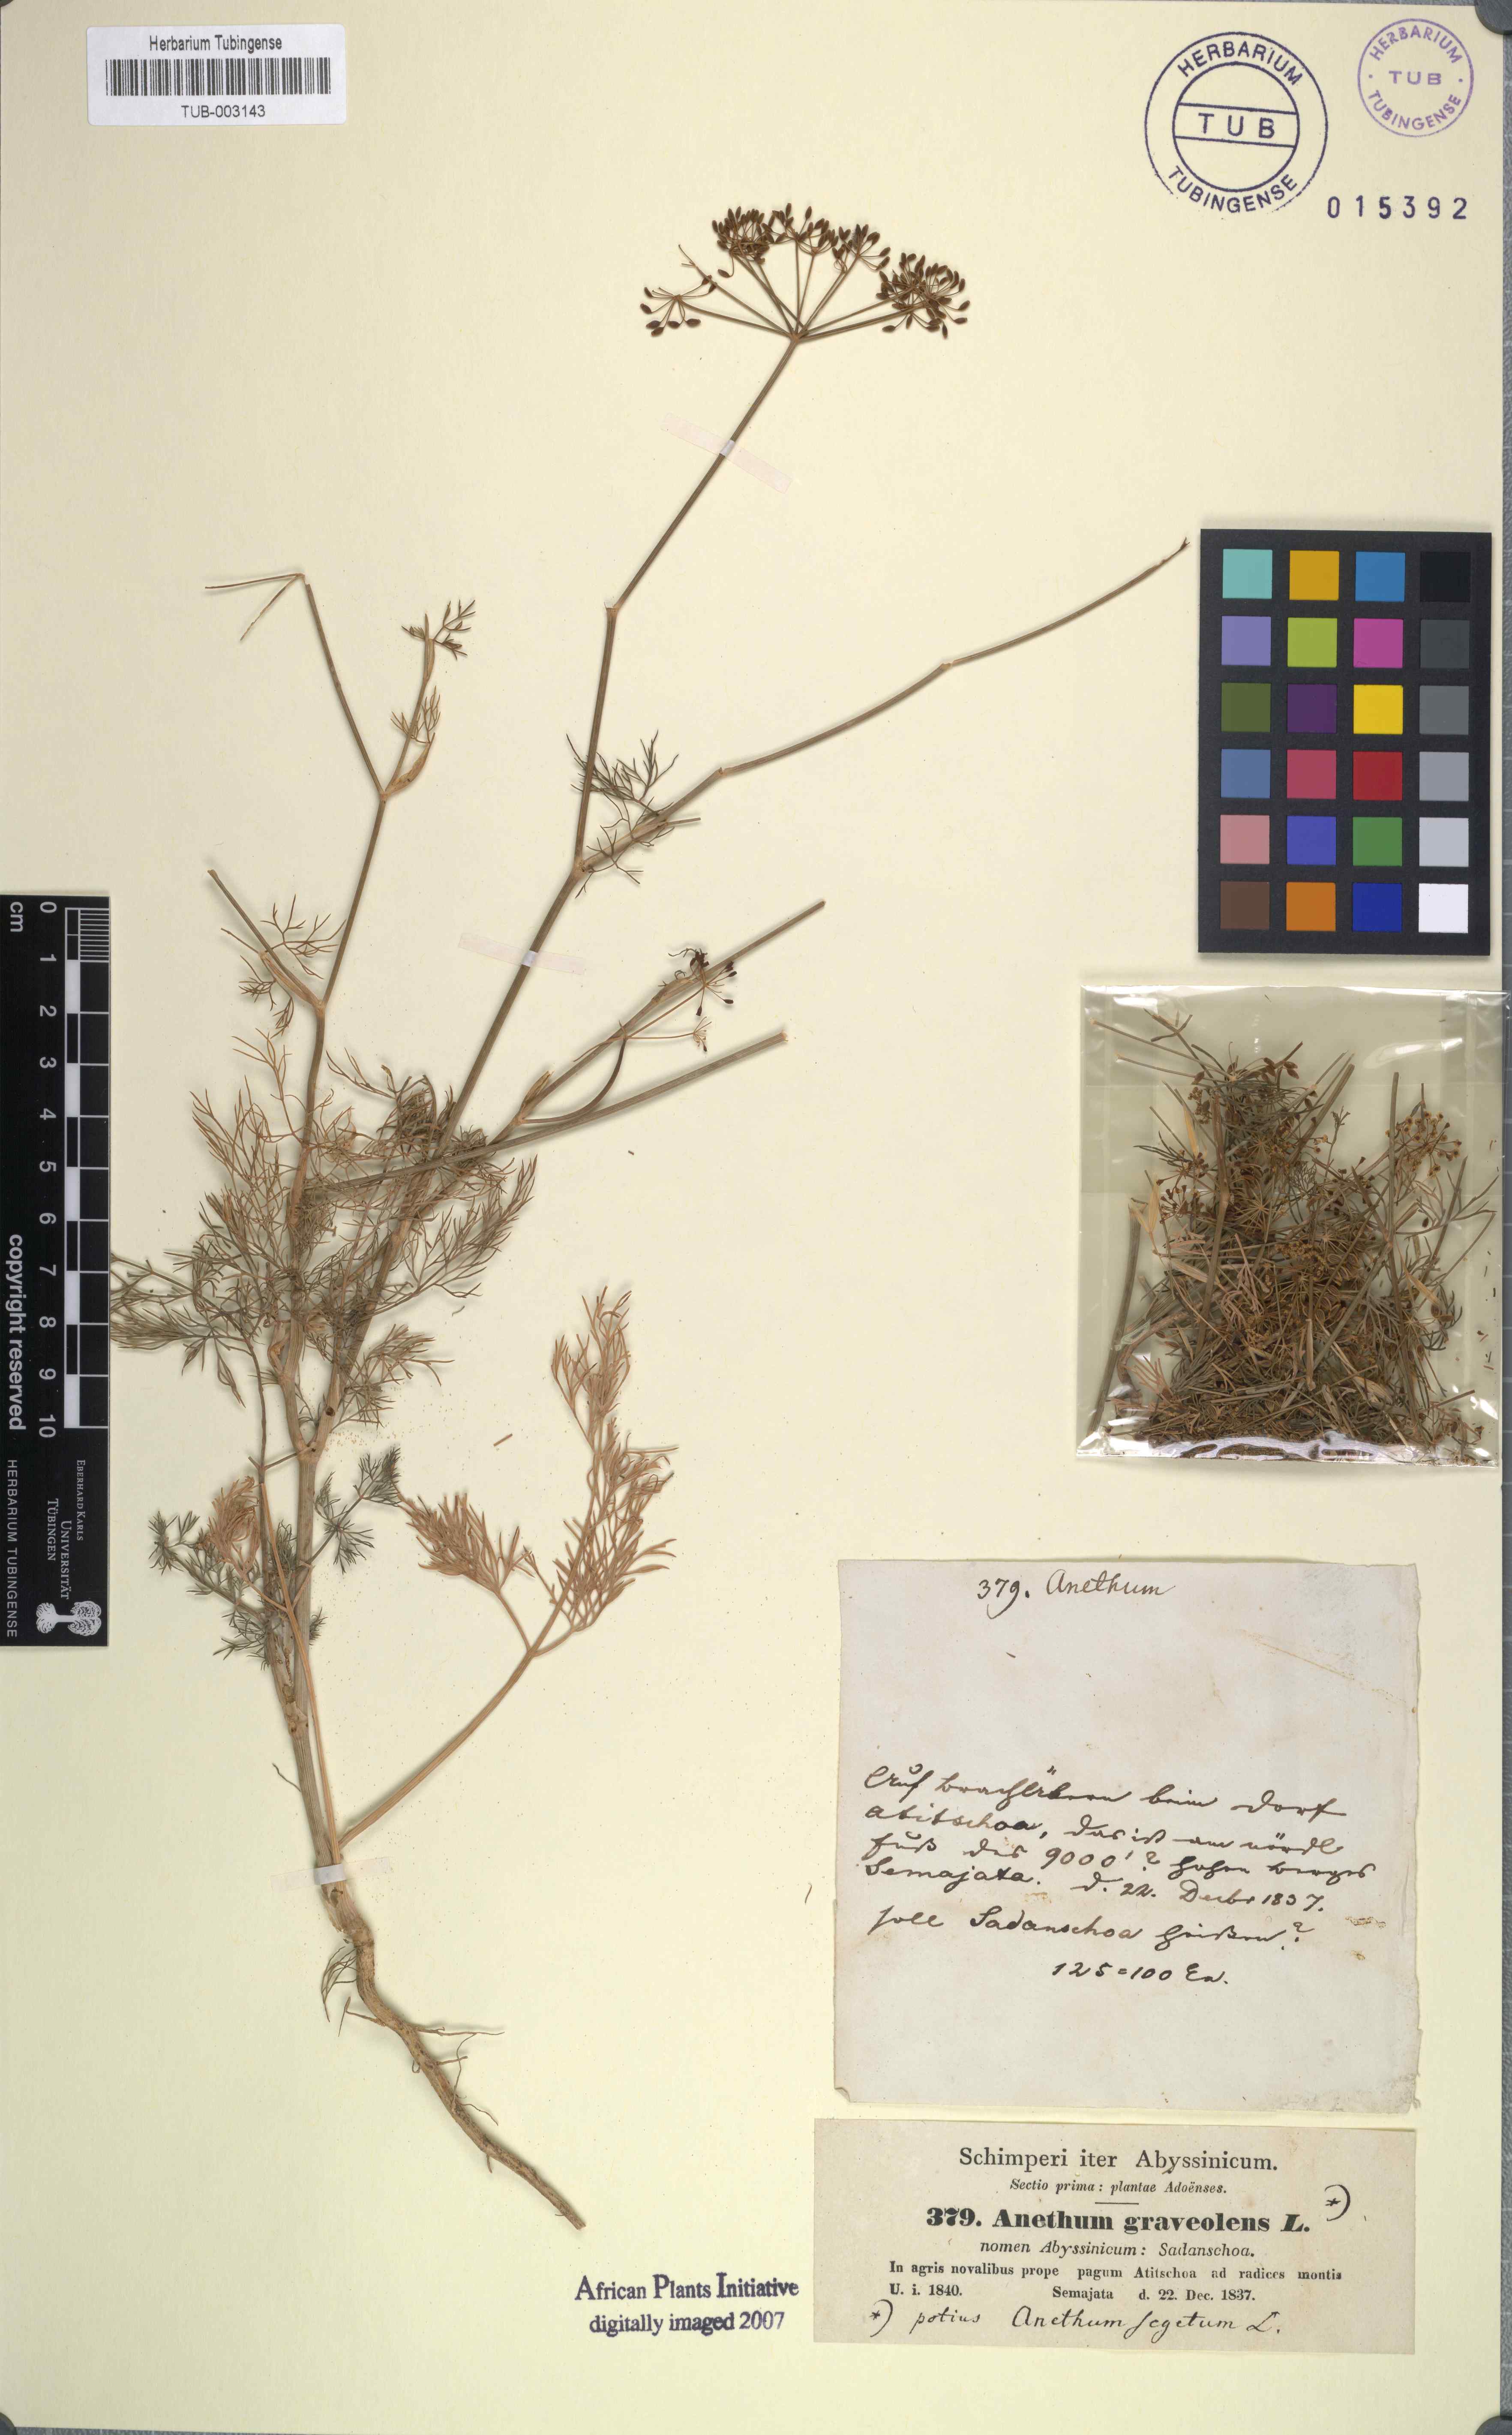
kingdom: Plantae
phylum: Tracheophyta
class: Magnoliopsida
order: Apiales
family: Apiaceae
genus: Anethum
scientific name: Anethum graveolens
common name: Dill
